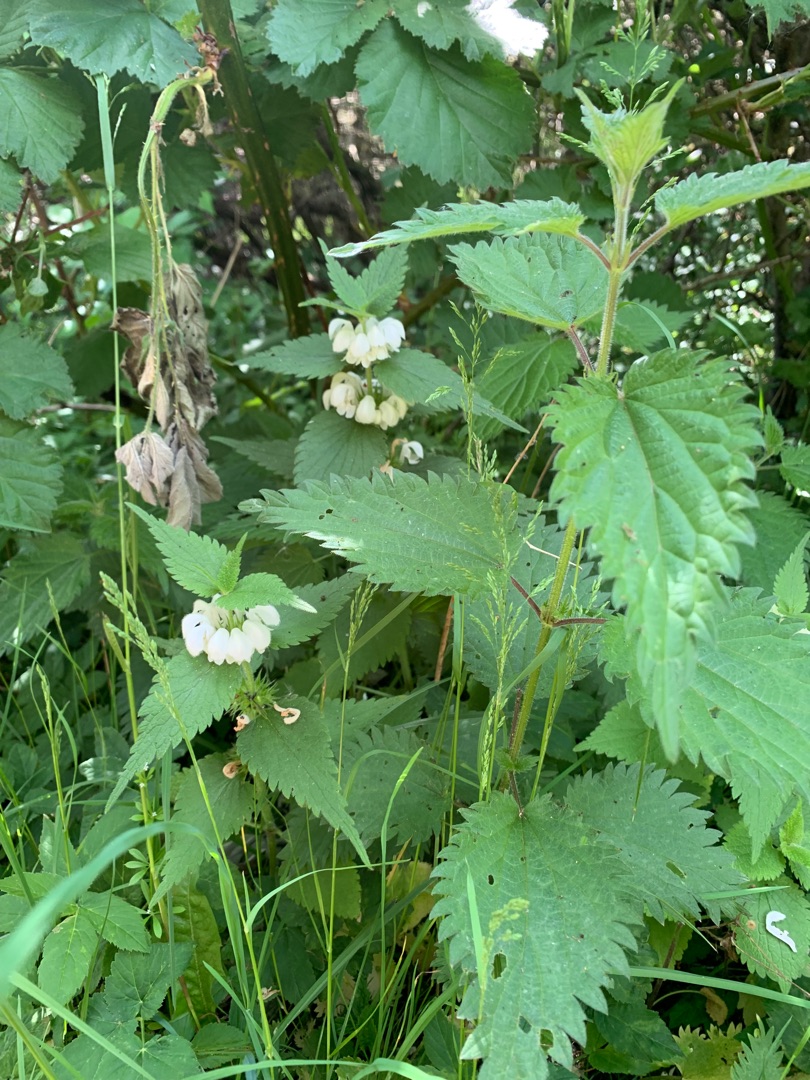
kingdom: Plantae
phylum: Tracheophyta
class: Magnoliopsida
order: Lamiales
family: Lamiaceae
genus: Lamium
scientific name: Lamium album
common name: Døvnælde
